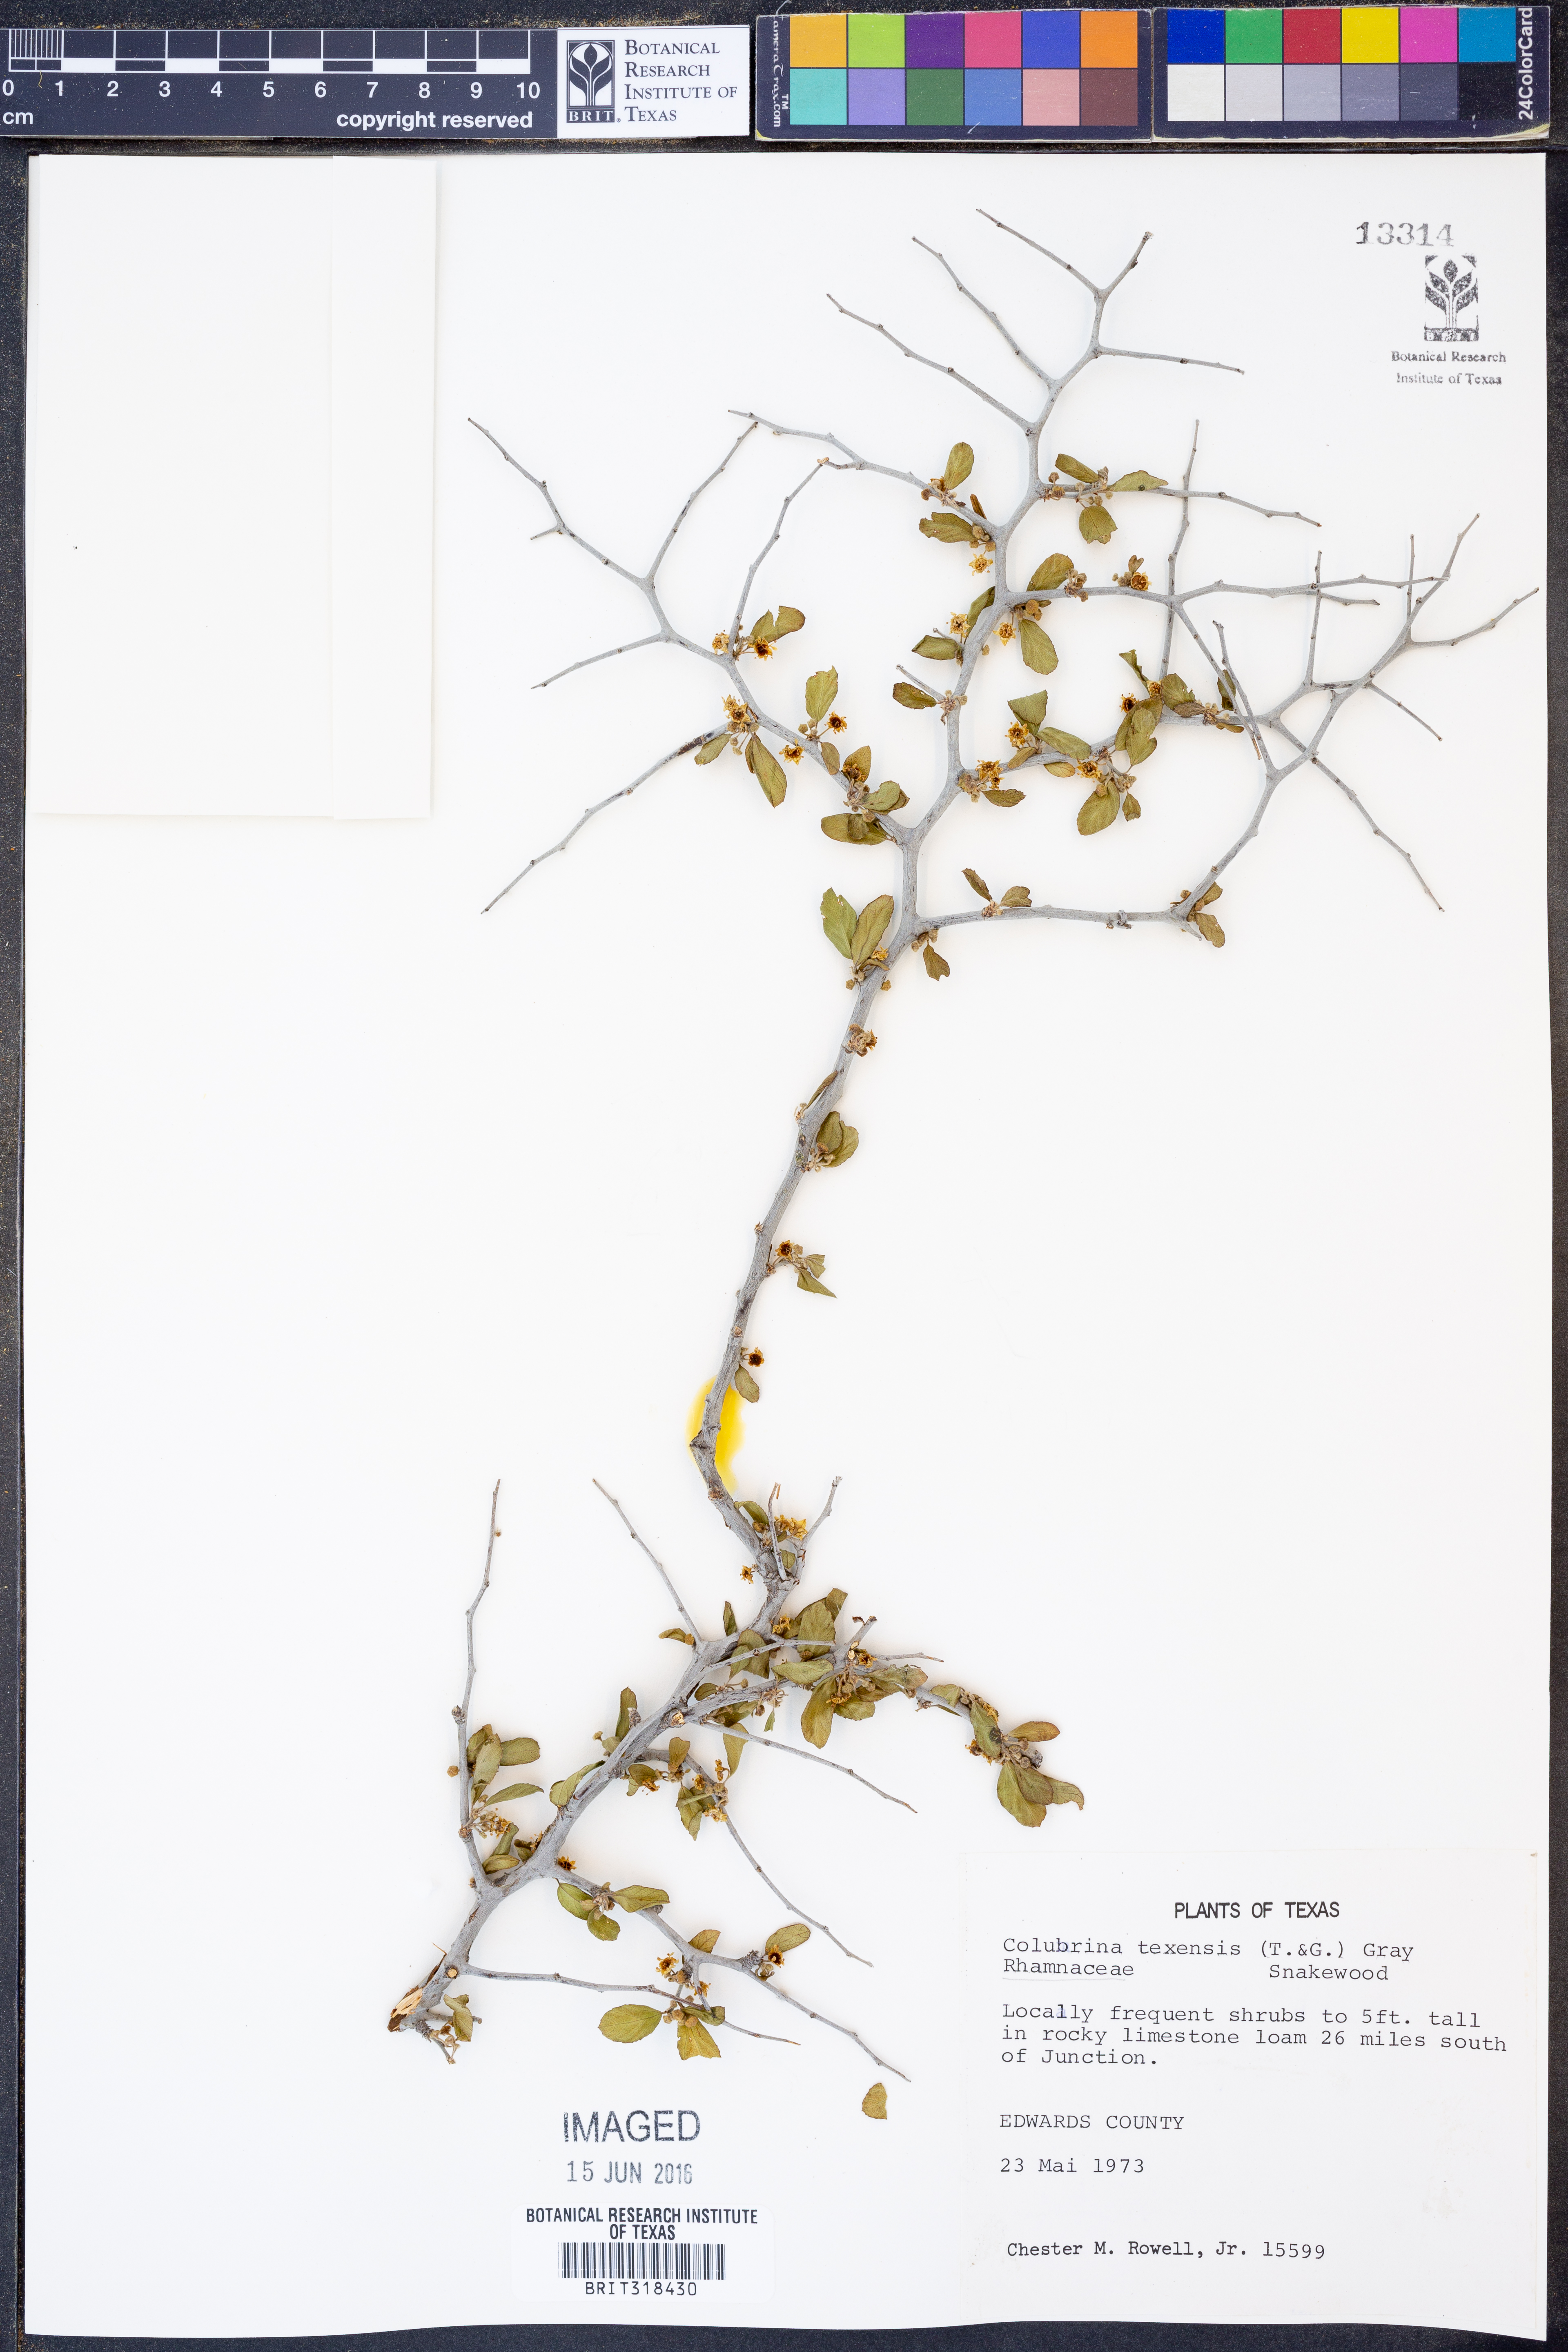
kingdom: Plantae
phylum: Tracheophyta
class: Magnoliopsida
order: Rosales
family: Rhamnaceae
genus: Colubrina
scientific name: Colubrina texensis
